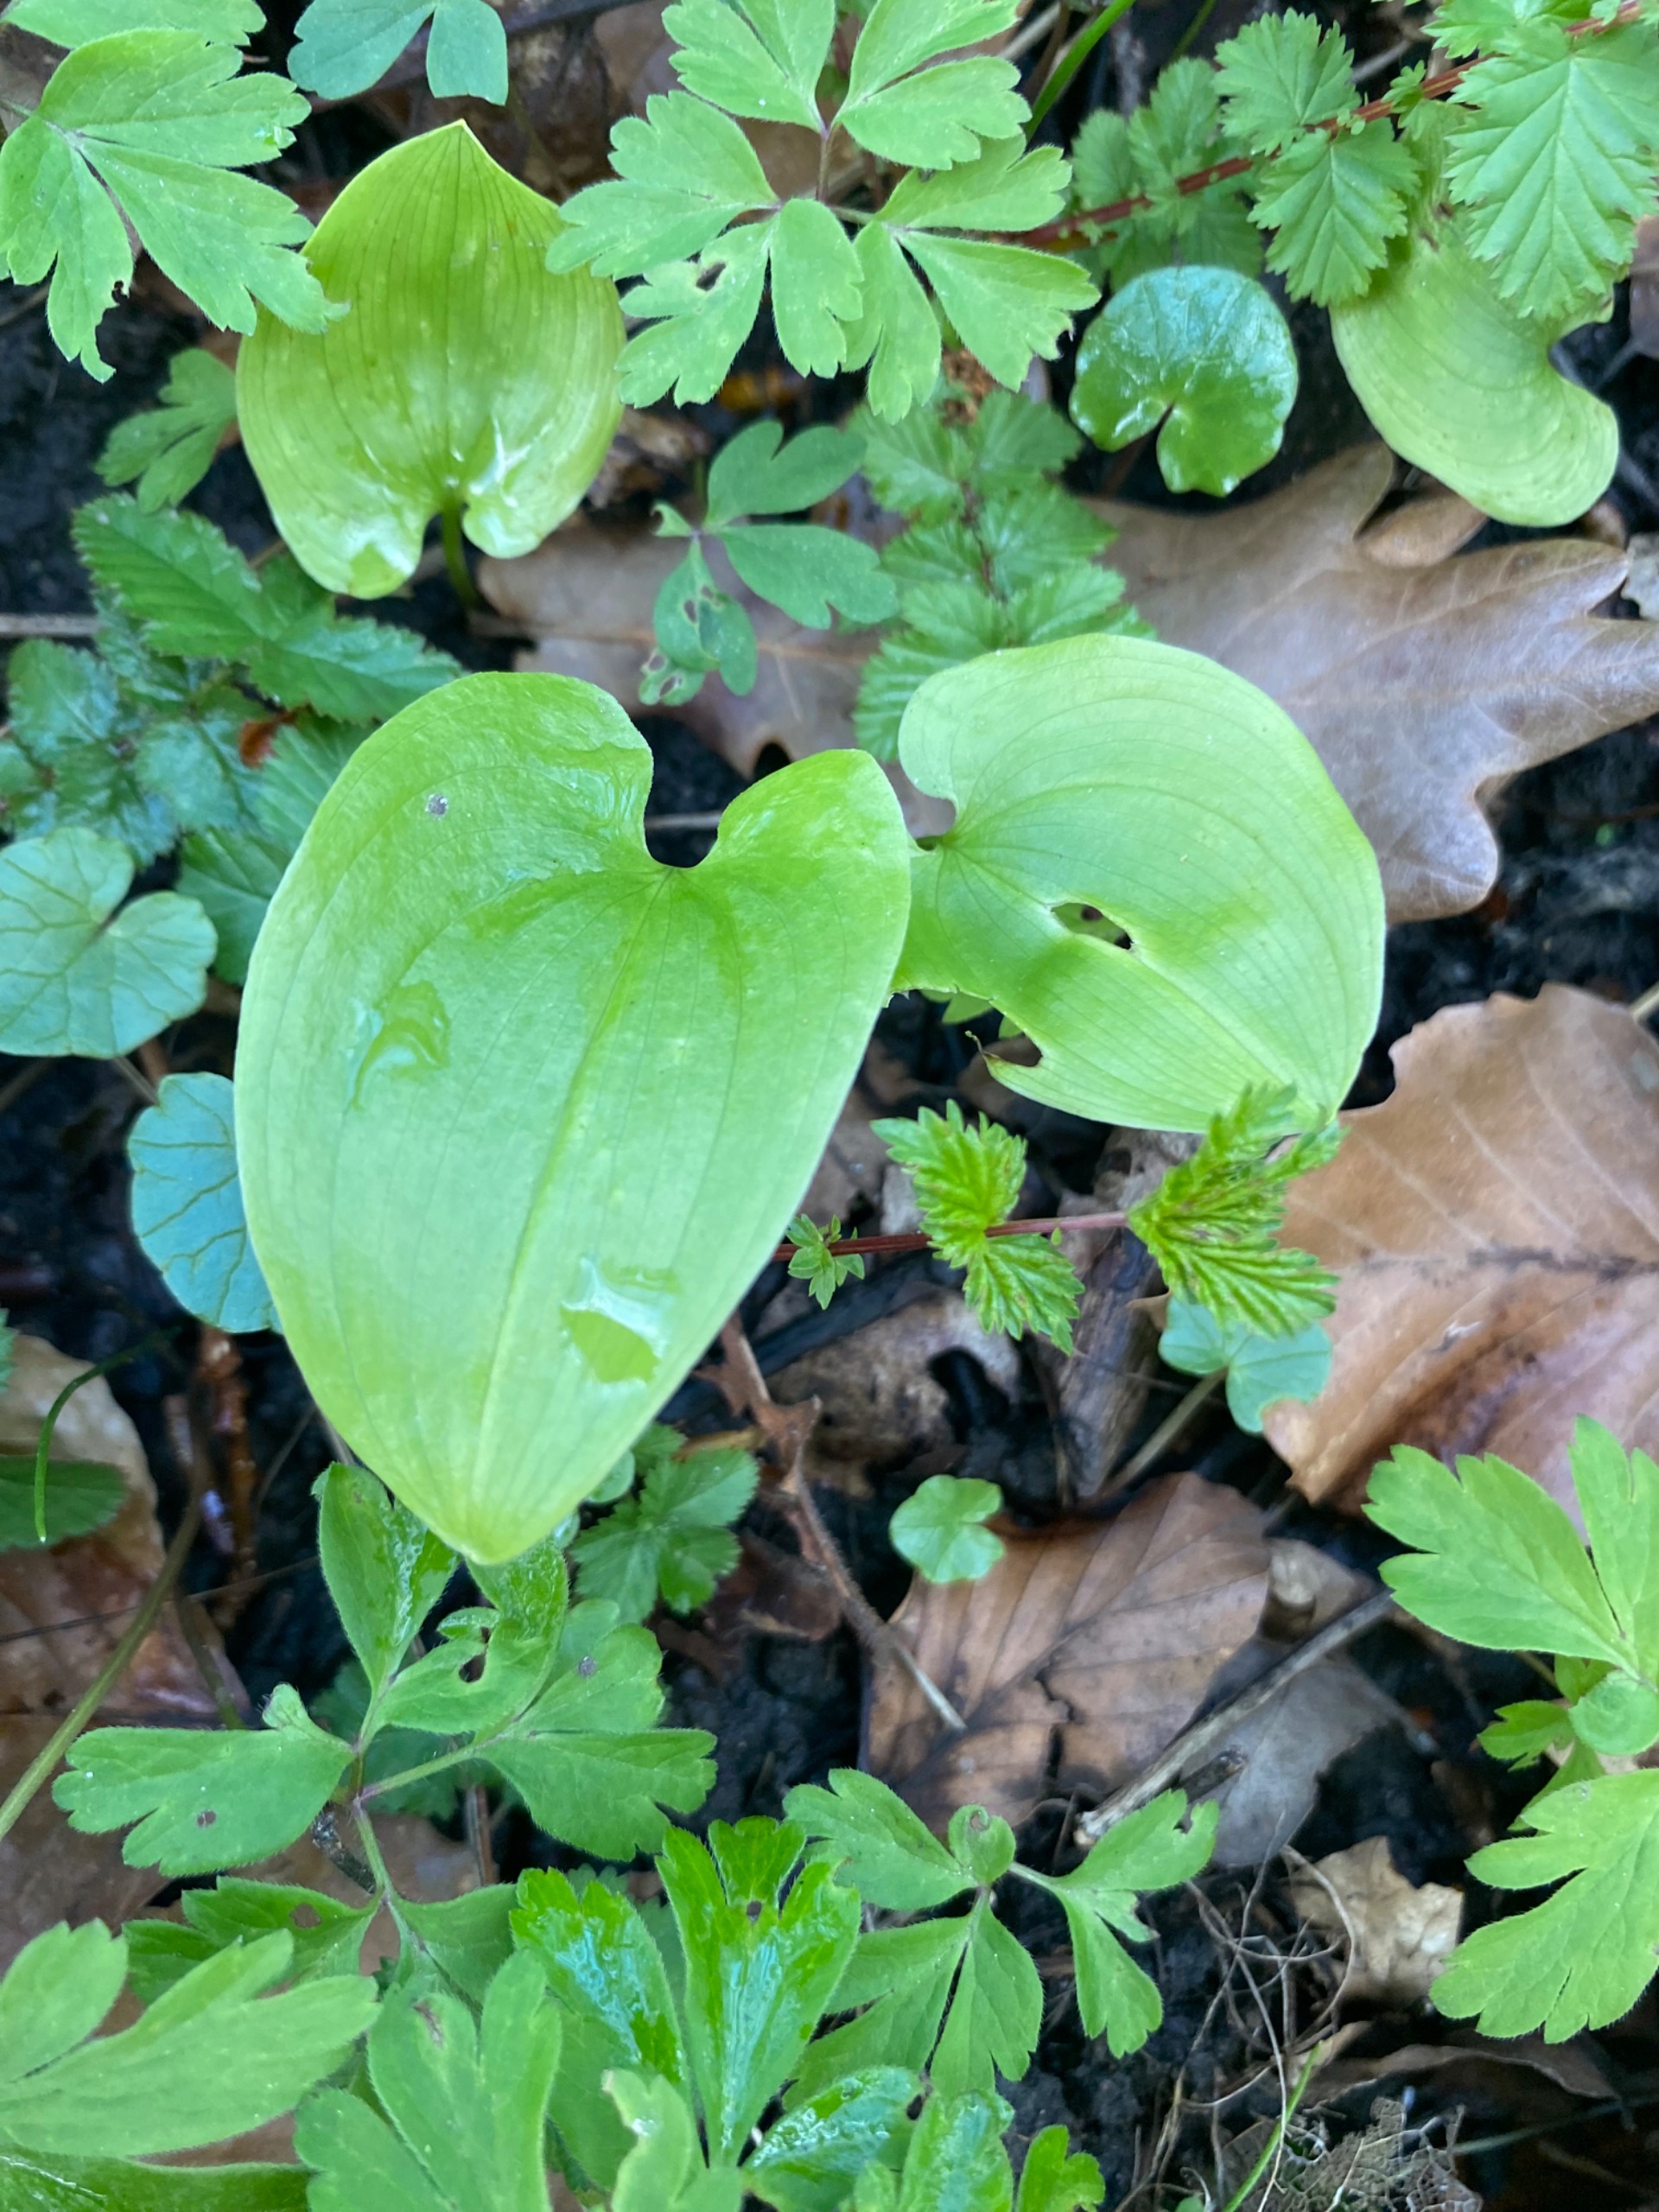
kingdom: Plantae
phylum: Tracheophyta
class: Liliopsida
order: Asparagales
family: Asparagaceae
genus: Maianthemum
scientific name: Maianthemum bifolium
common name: Majblomst
